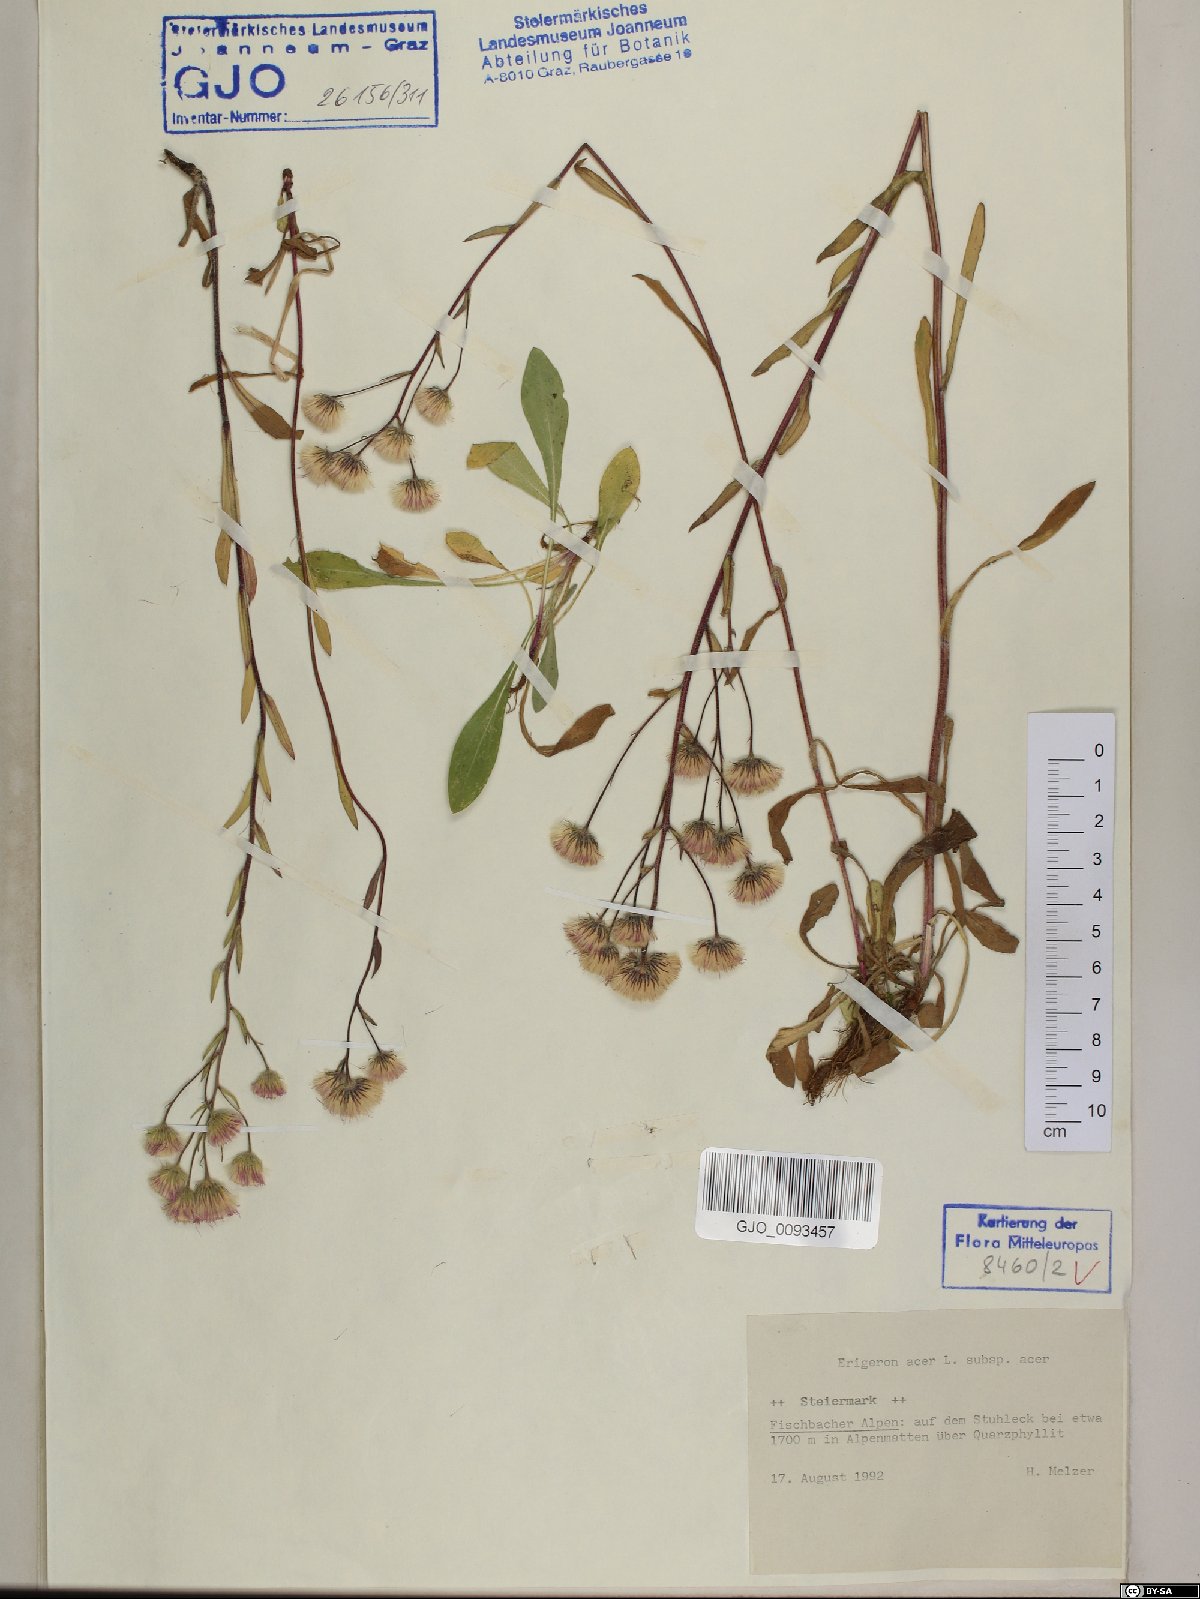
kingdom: Plantae
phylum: Tracheophyta
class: Magnoliopsida
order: Asterales
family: Asteraceae
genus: Erigeron
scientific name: Erigeron acris
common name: Blue fleabane
